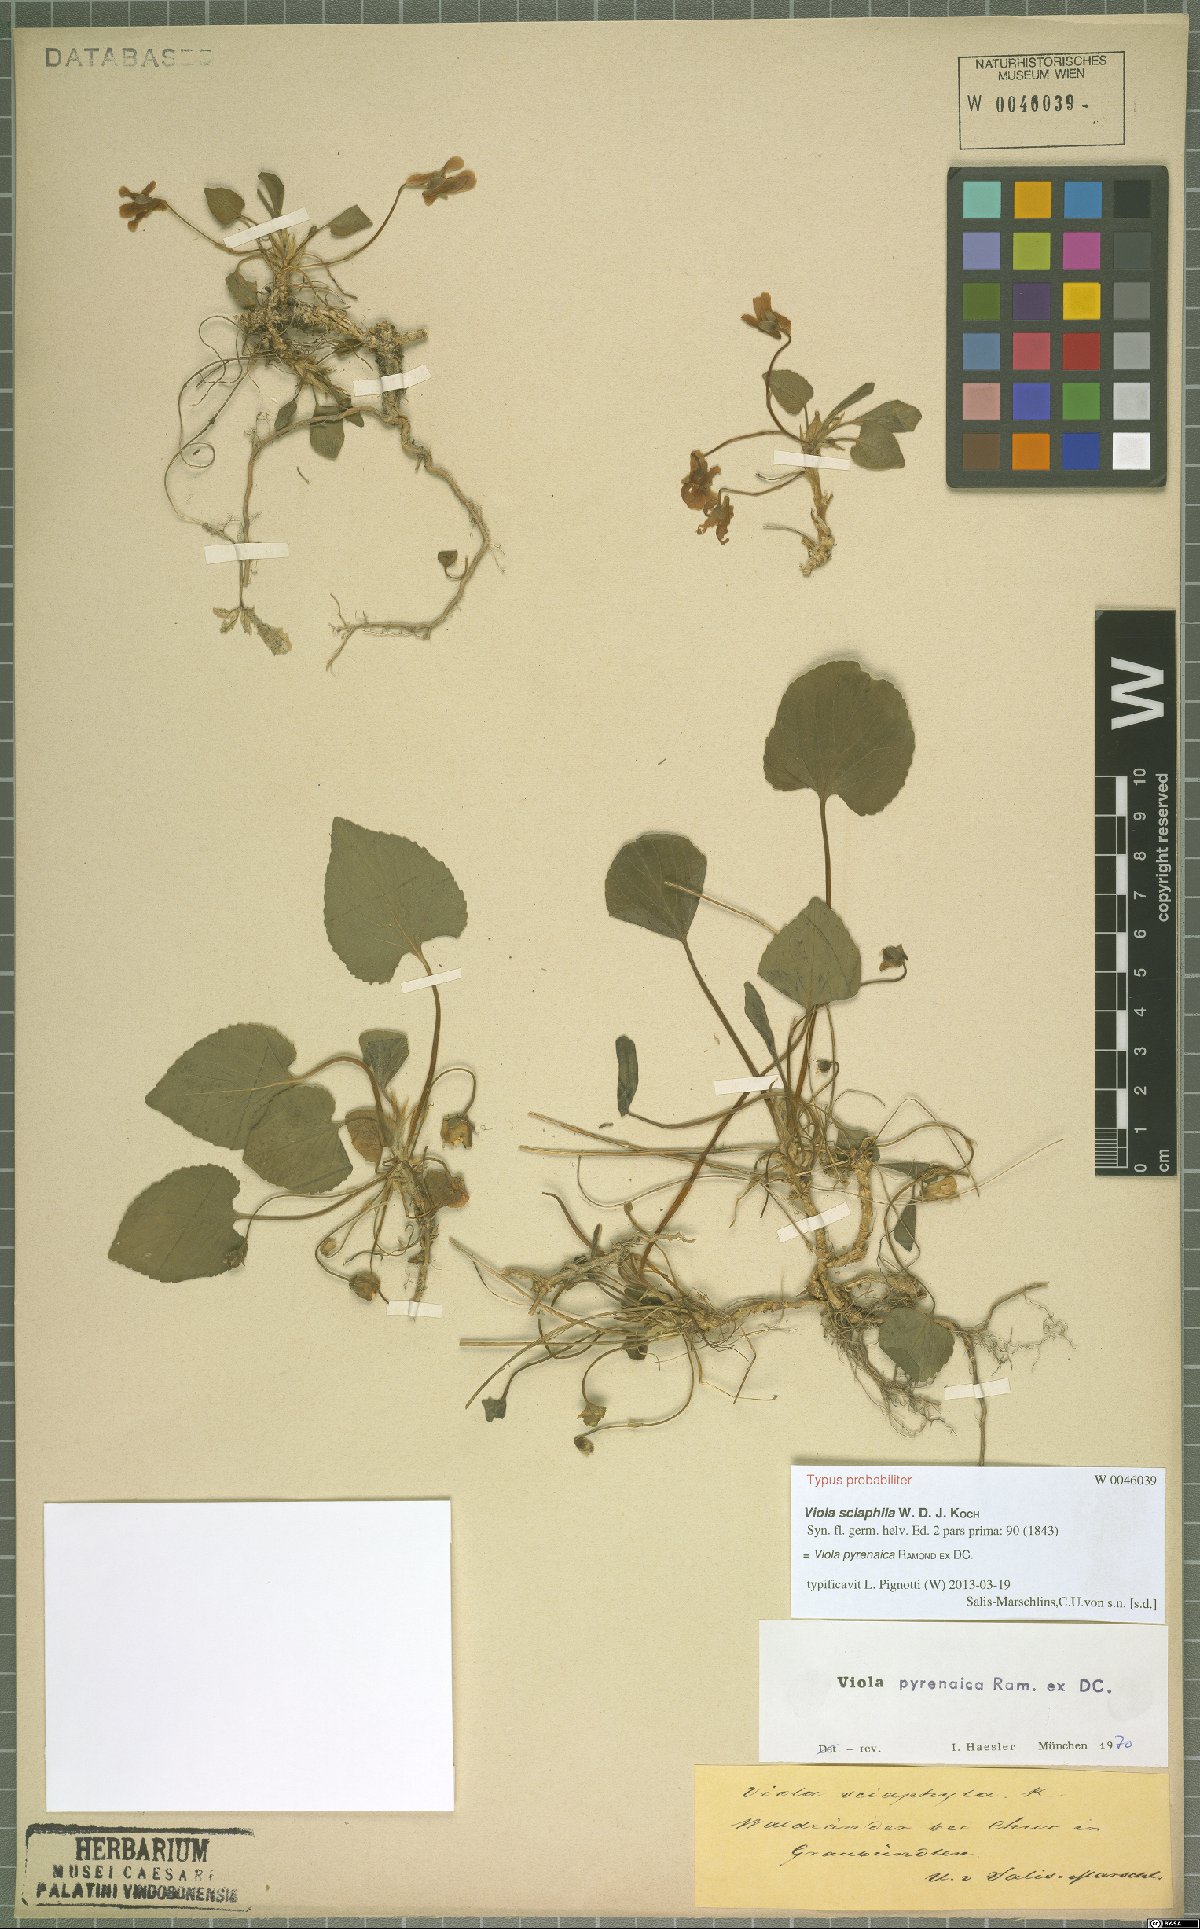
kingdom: Plantae
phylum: Tracheophyta
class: Magnoliopsida
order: Malpighiales
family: Violaceae
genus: Viola
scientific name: Viola pyrenaica
